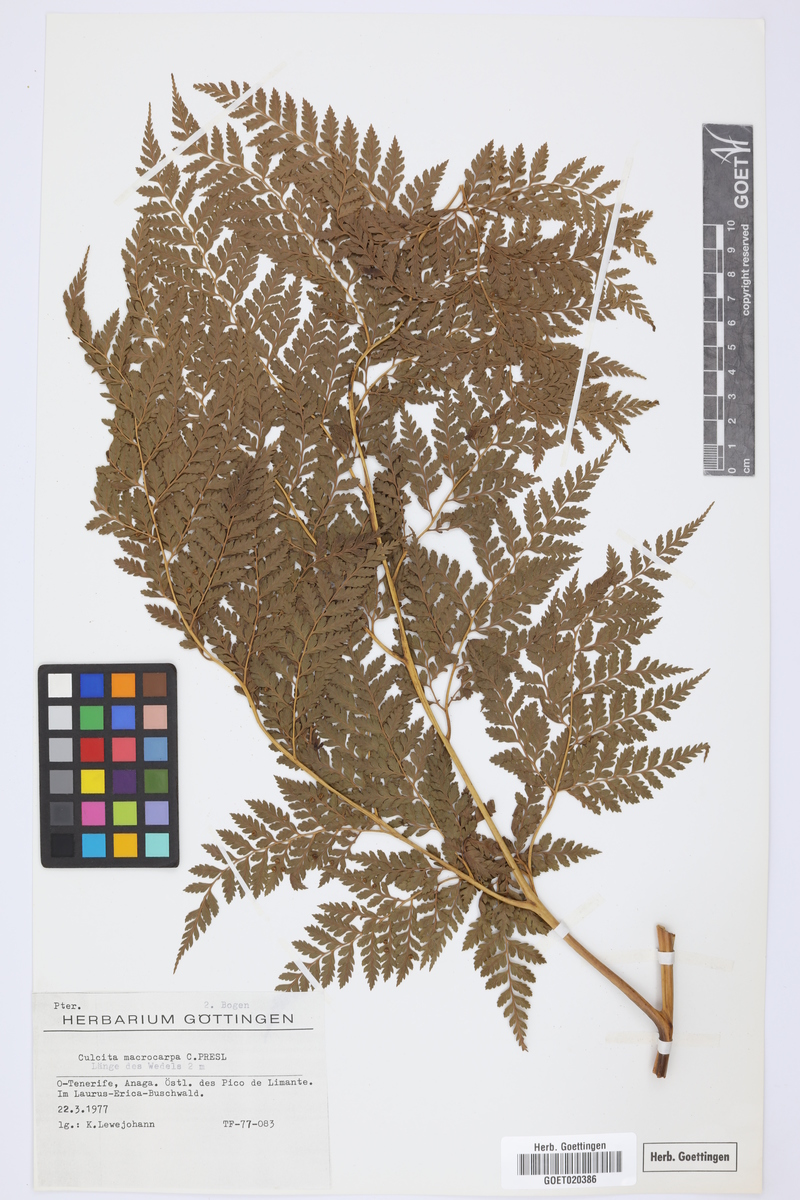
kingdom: Plantae
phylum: Tracheophyta
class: Polypodiopsida
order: Cyatheales
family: Culcitaceae
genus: Culcita
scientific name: Culcita macrocarpa
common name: Woolly tree fern
